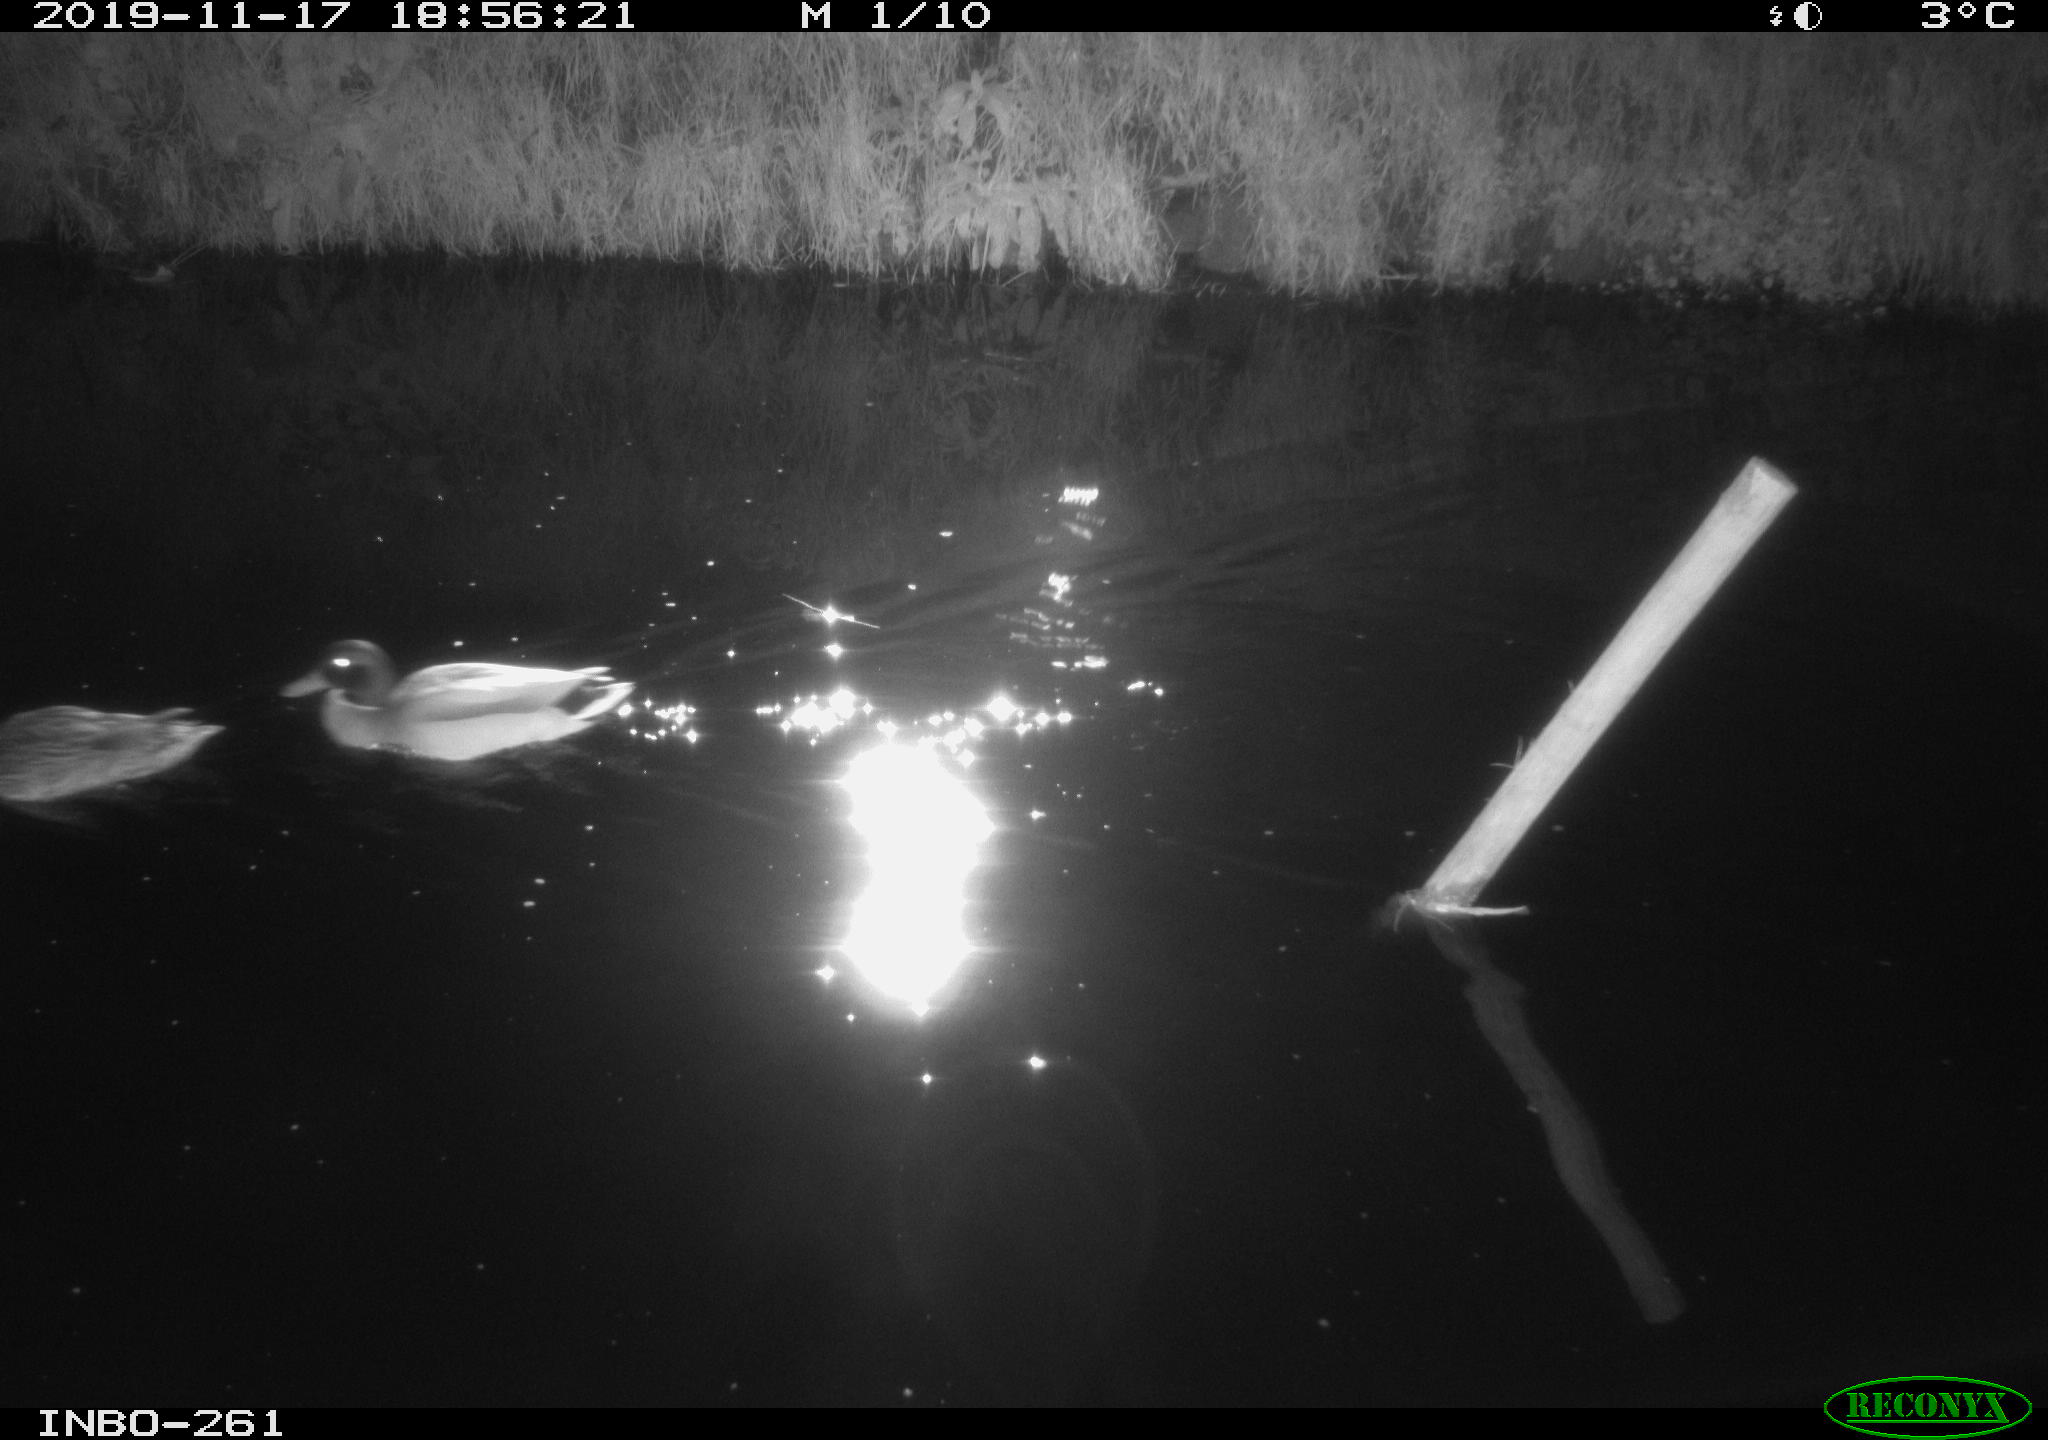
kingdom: Animalia
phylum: Chordata
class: Aves
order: Anseriformes
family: Anatidae
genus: Anas
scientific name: Anas platyrhynchos
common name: Mallard
